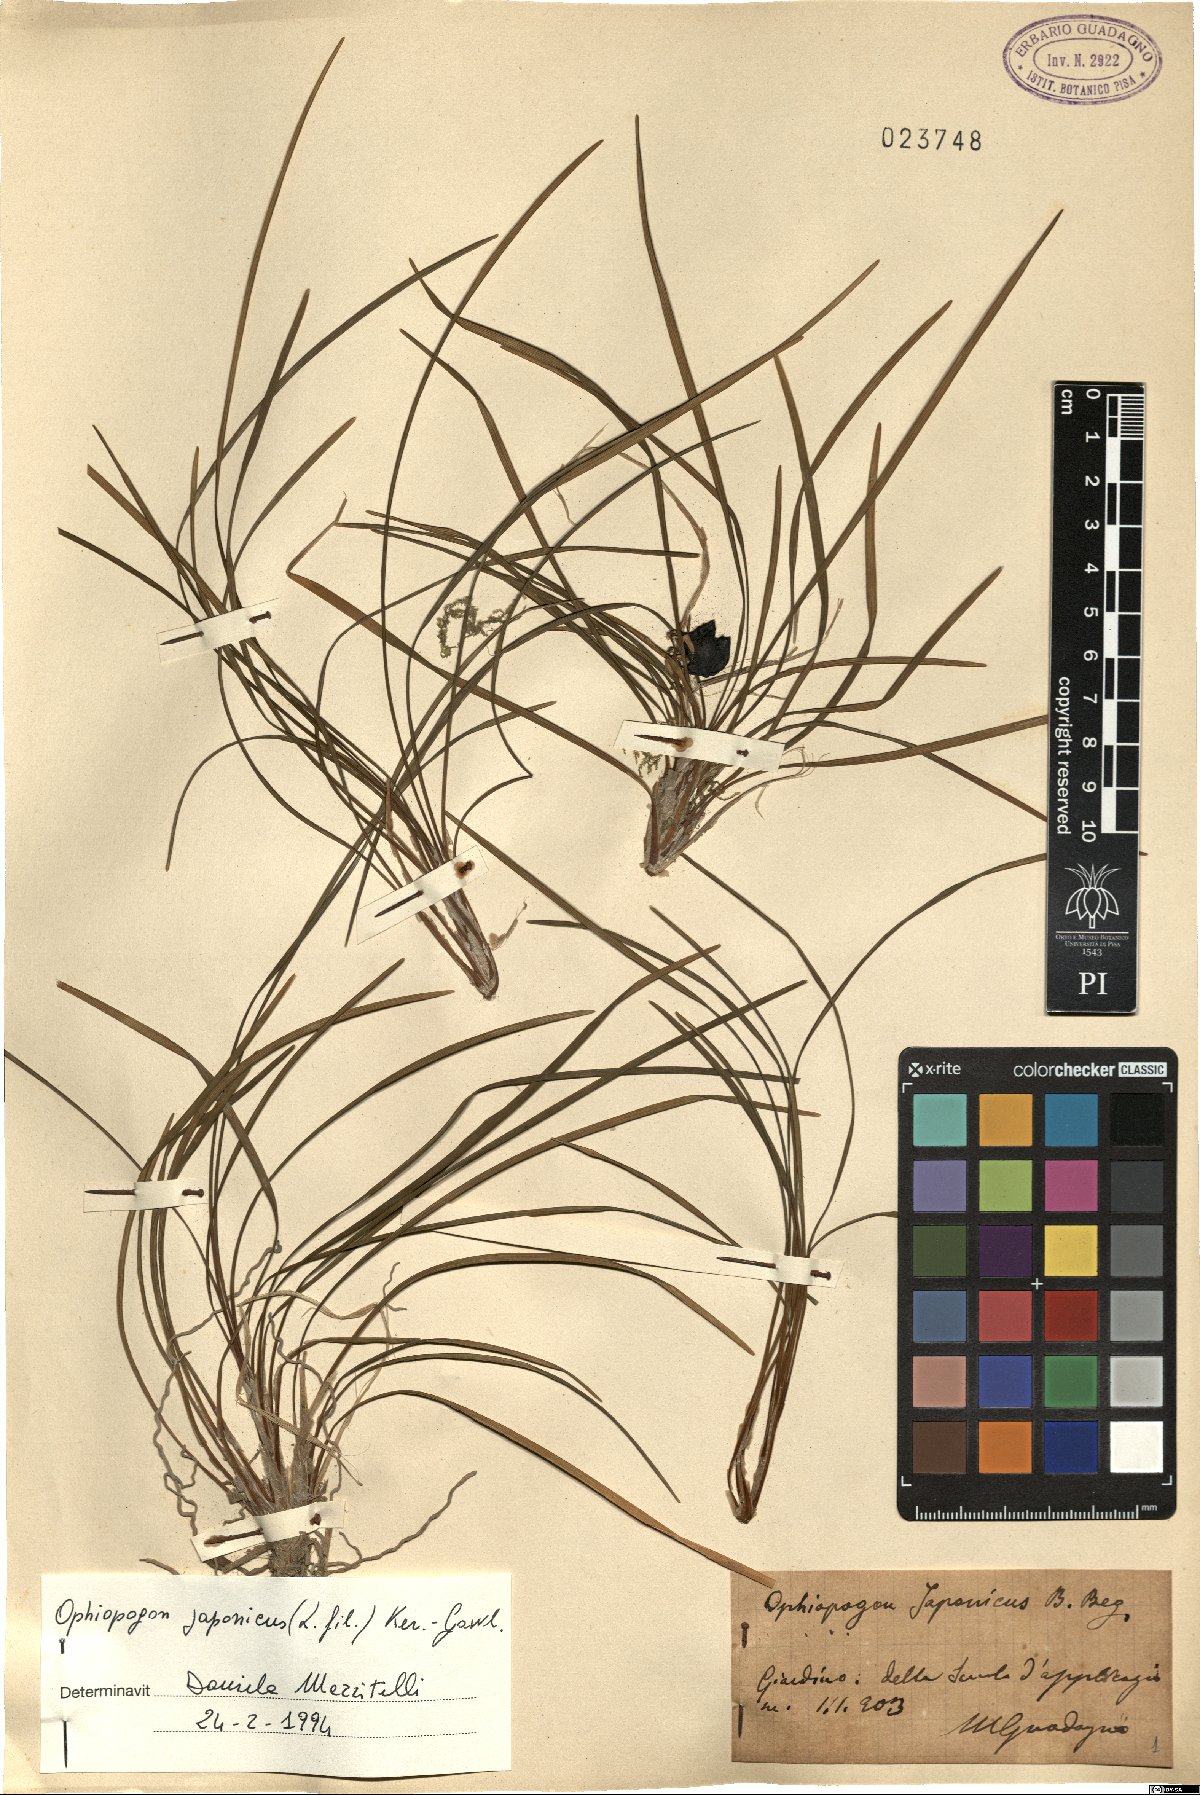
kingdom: Plantae
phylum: Tracheophyta
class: Liliopsida
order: Asparagales
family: Asparagaceae
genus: Ophiopogon
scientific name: Ophiopogon japonicus
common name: Dwarf lilyturf
